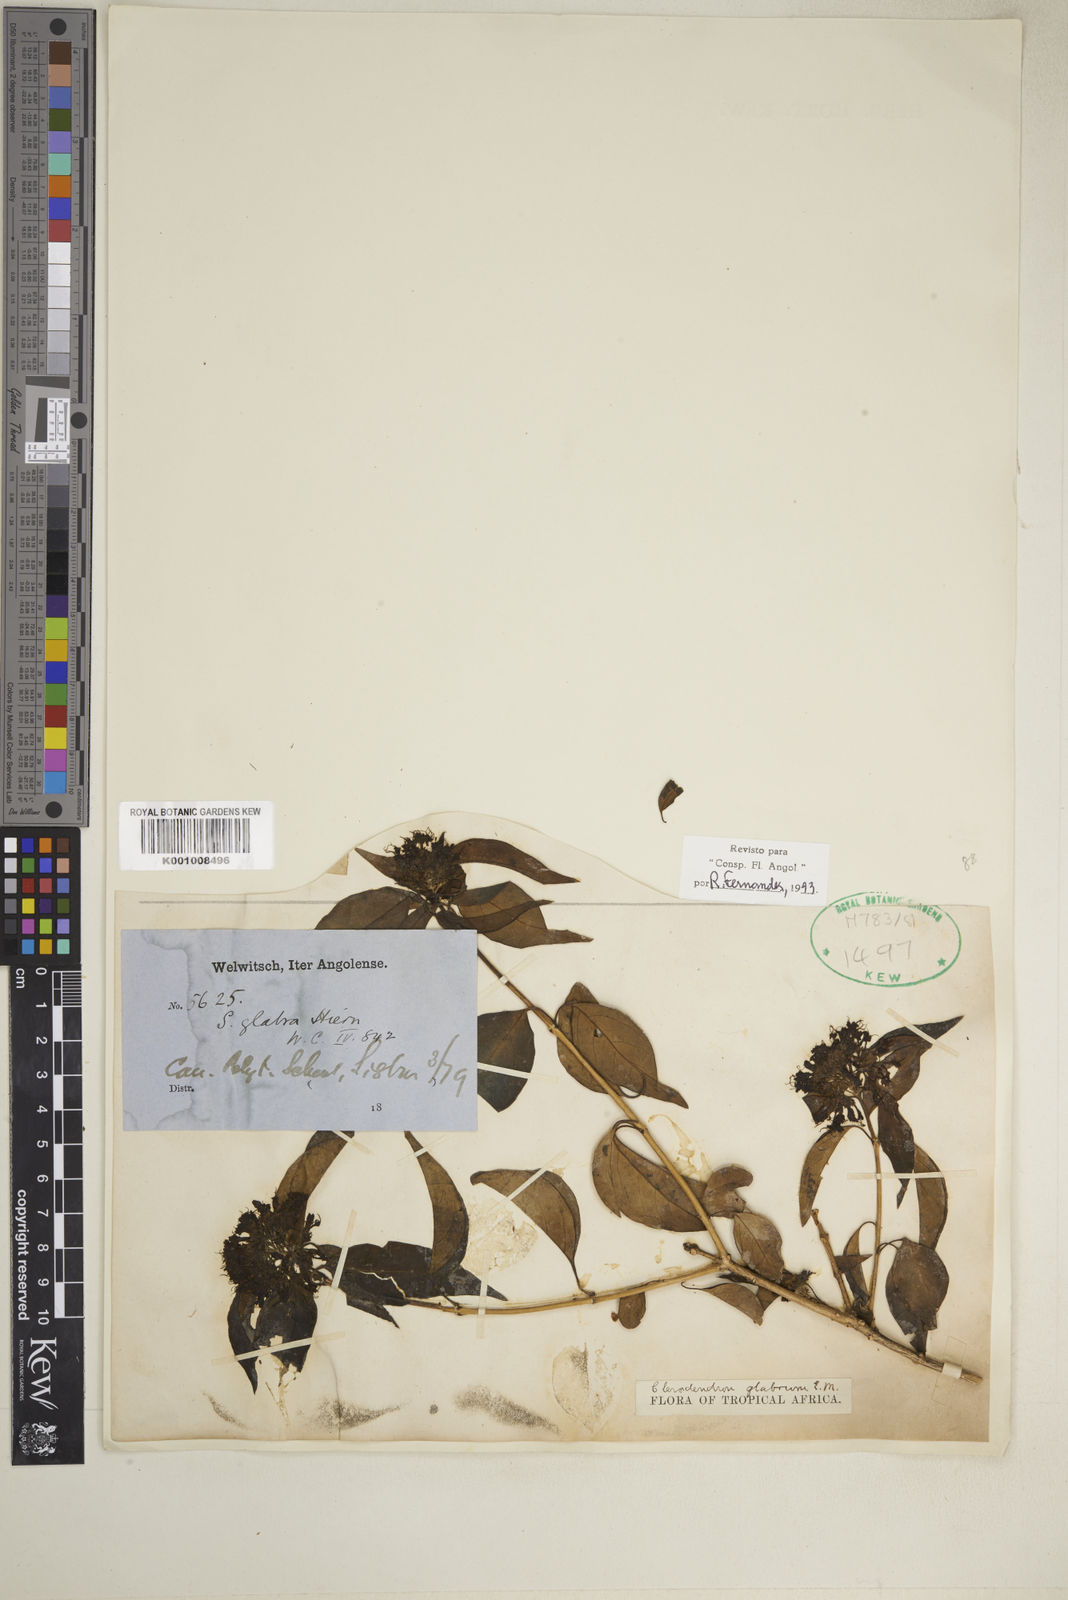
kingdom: Plantae
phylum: Tracheophyta
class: Magnoliopsida
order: Lamiales
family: Lamiaceae
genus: Volkameria
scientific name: Volkameria glabra
